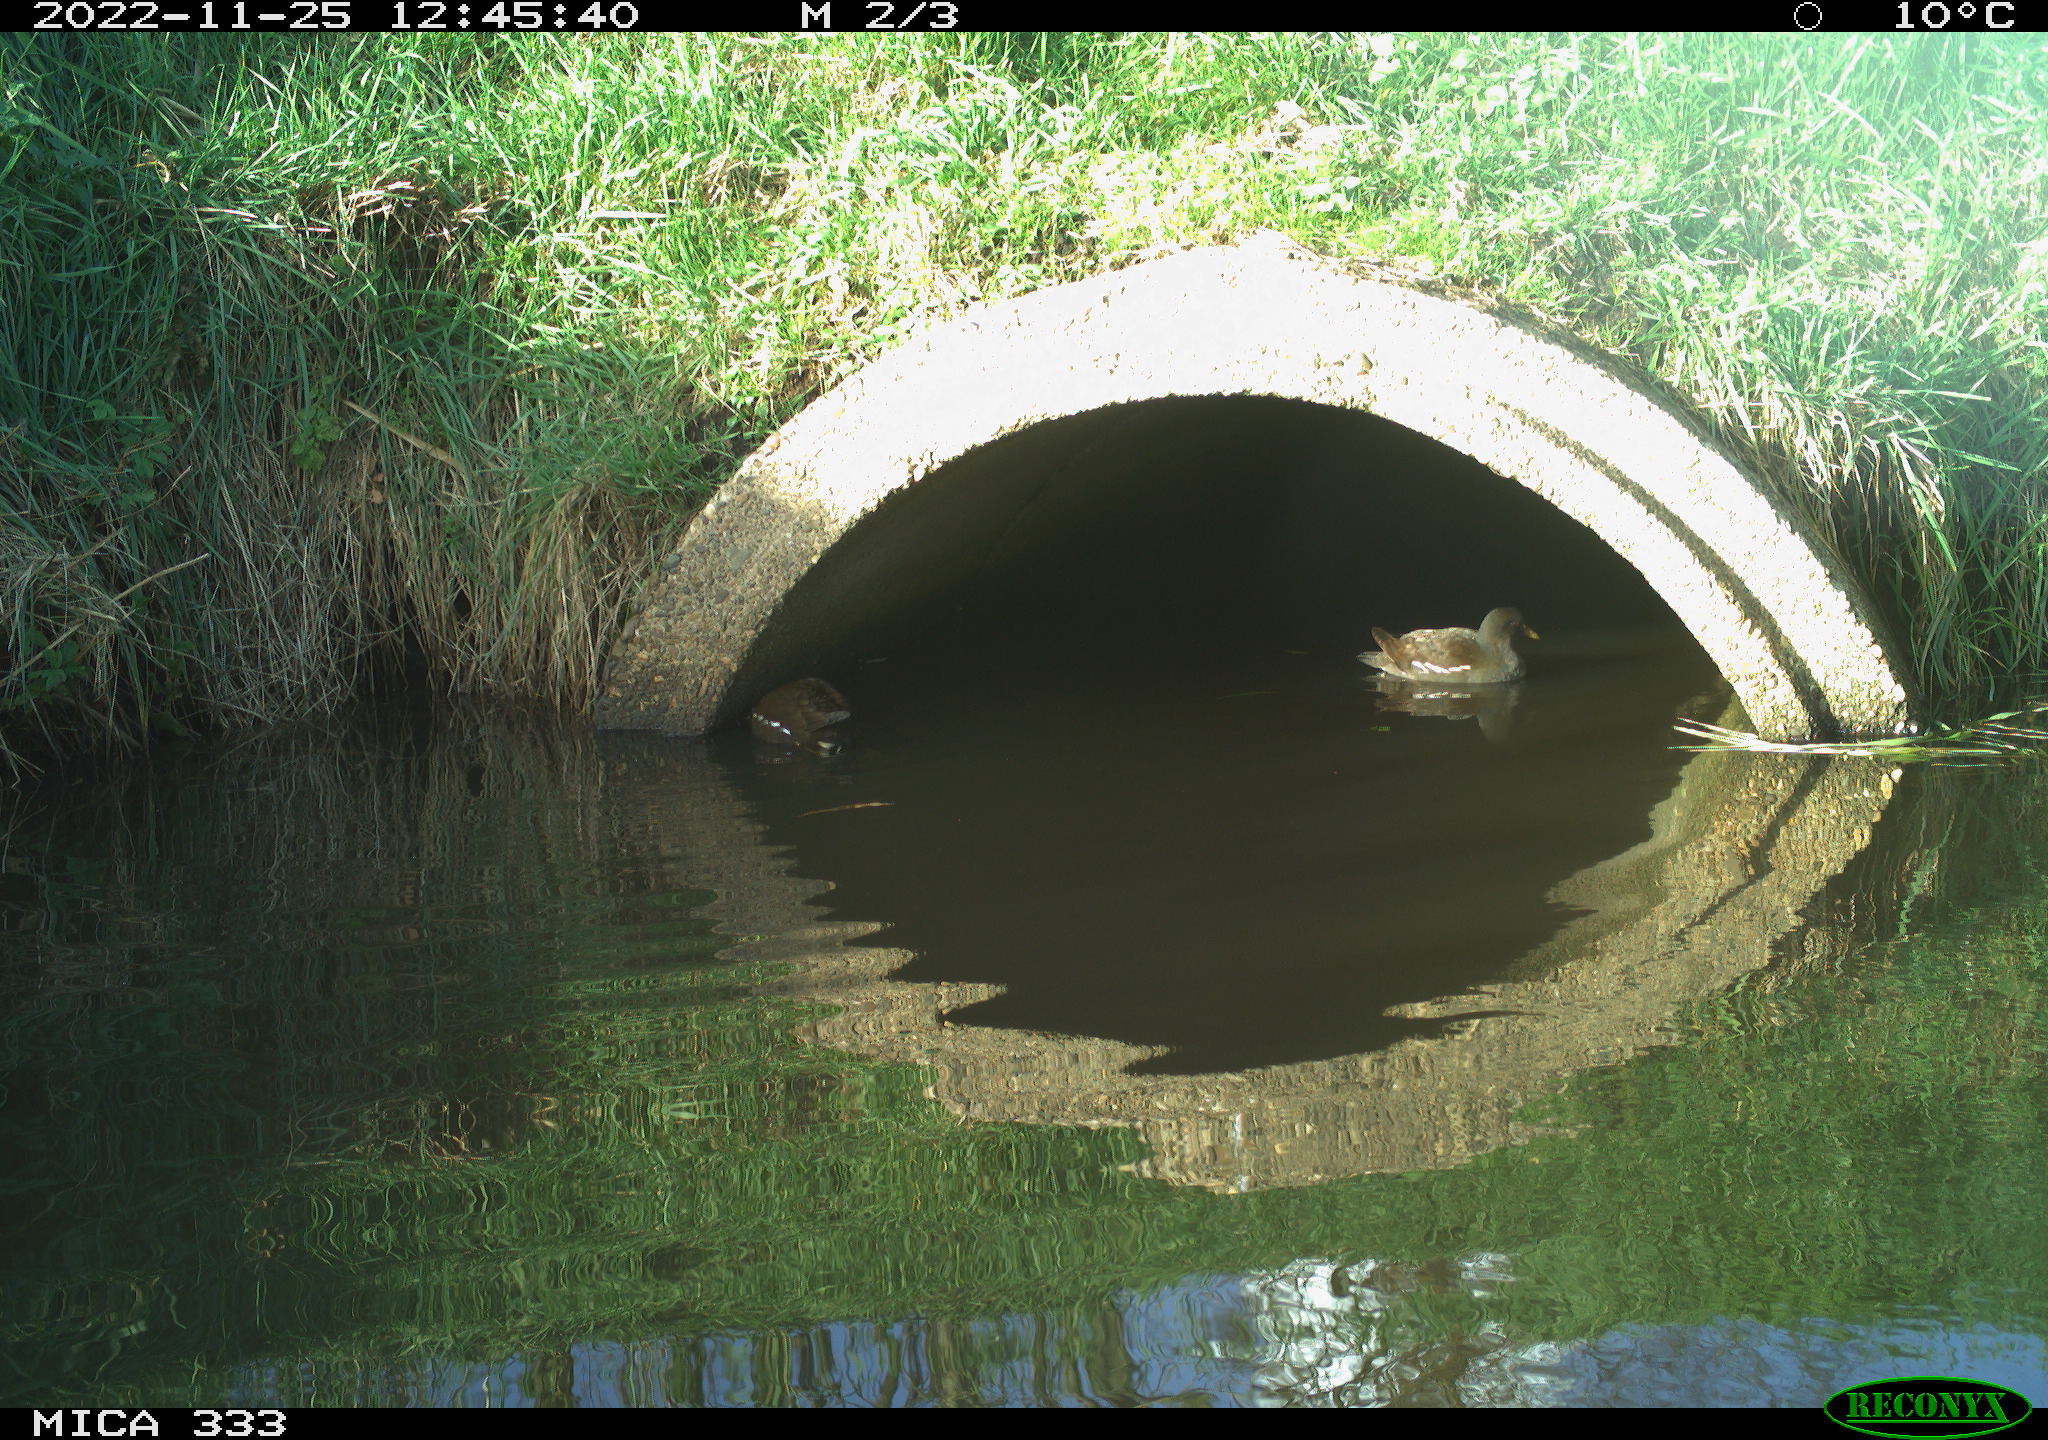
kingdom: Animalia
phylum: Chordata
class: Aves
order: Gruiformes
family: Rallidae
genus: Gallinula
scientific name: Gallinula chloropus
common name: Common moorhen
